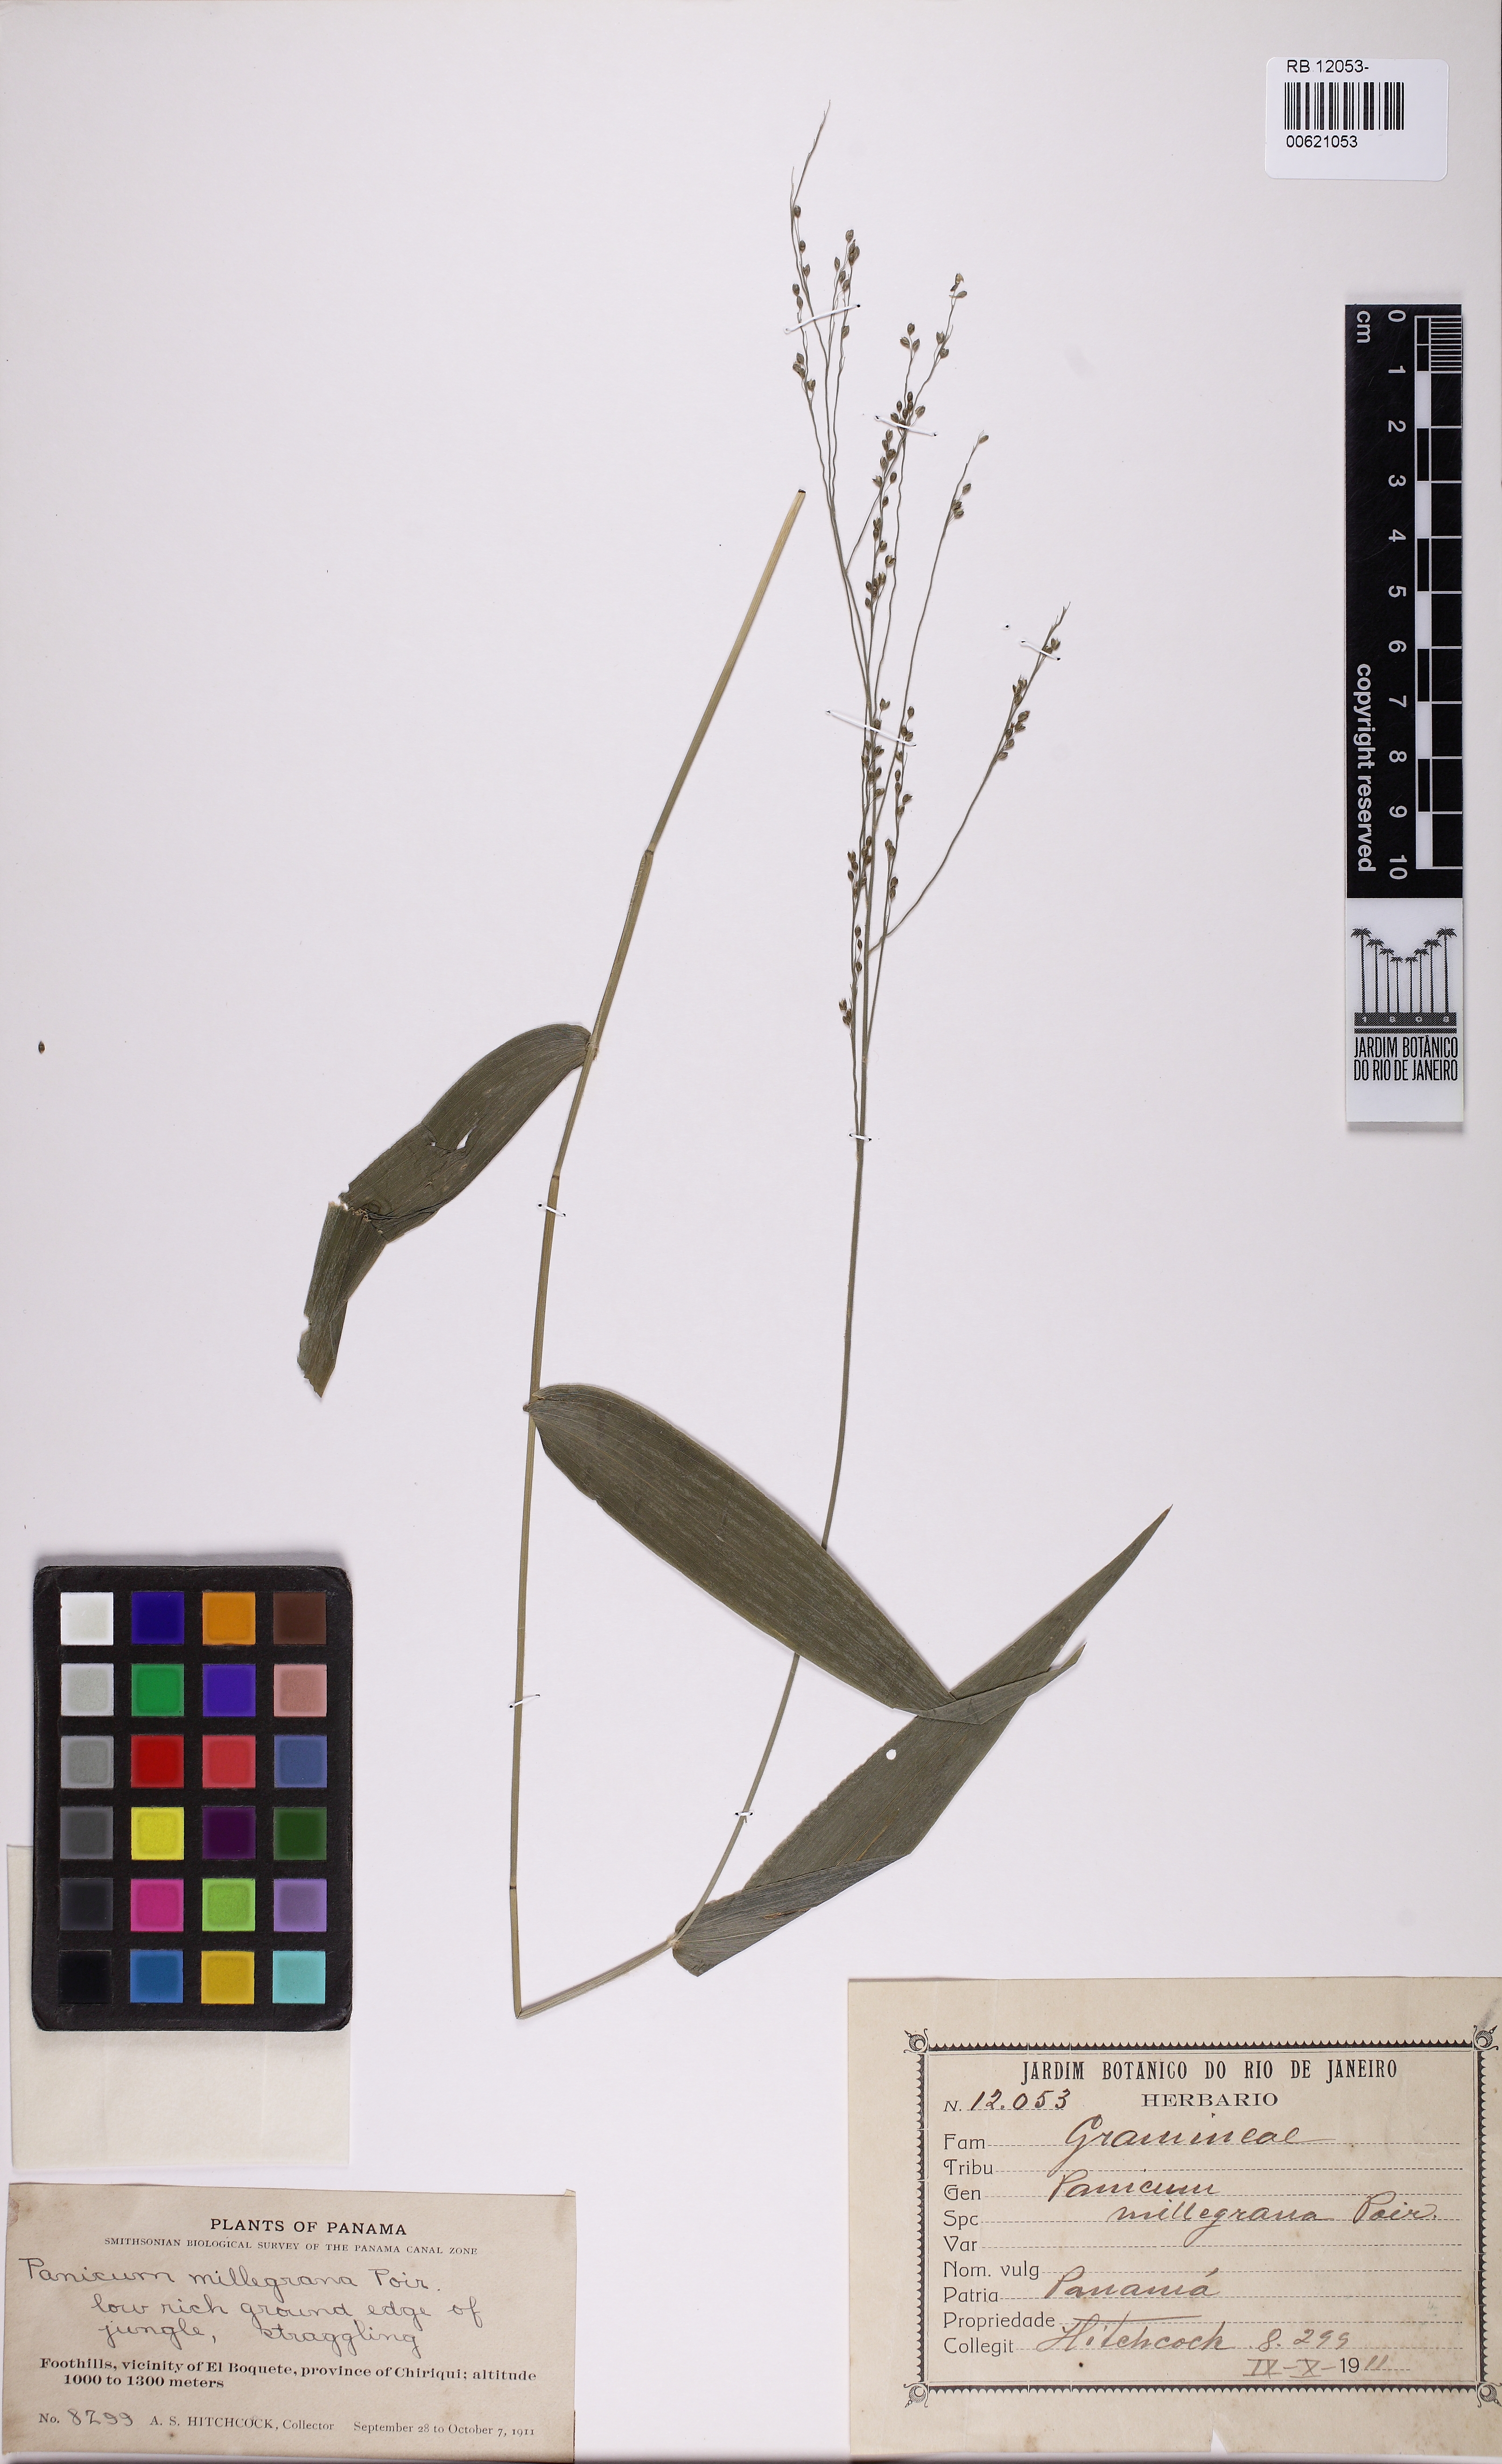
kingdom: Plantae
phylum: Tracheophyta
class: Liliopsida
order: Poales
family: Poaceae
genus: Panicum
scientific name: Panicum millegrana
